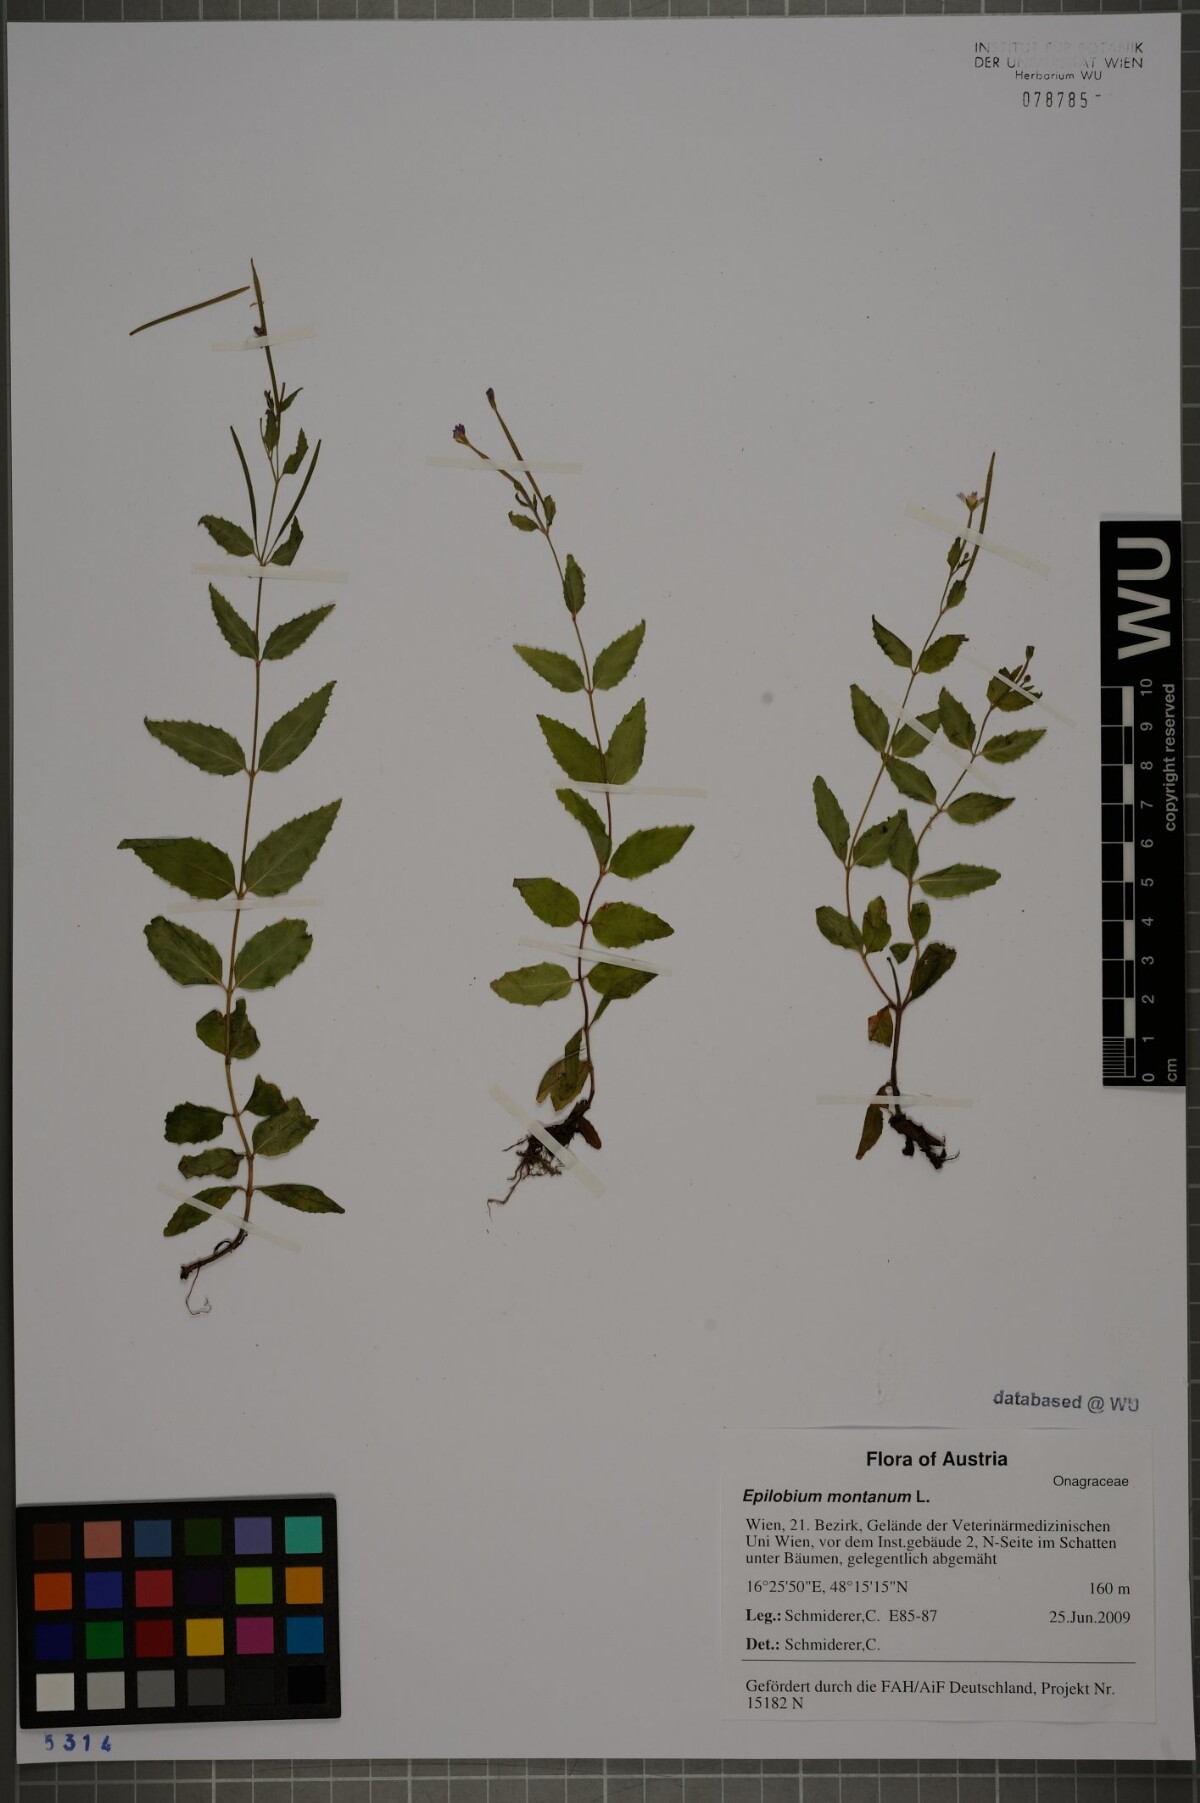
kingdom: Plantae
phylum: Tracheophyta
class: Magnoliopsida
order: Myrtales
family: Onagraceae
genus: Epilobium
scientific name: Epilobium montanum
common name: Broad-leaved willowherb
